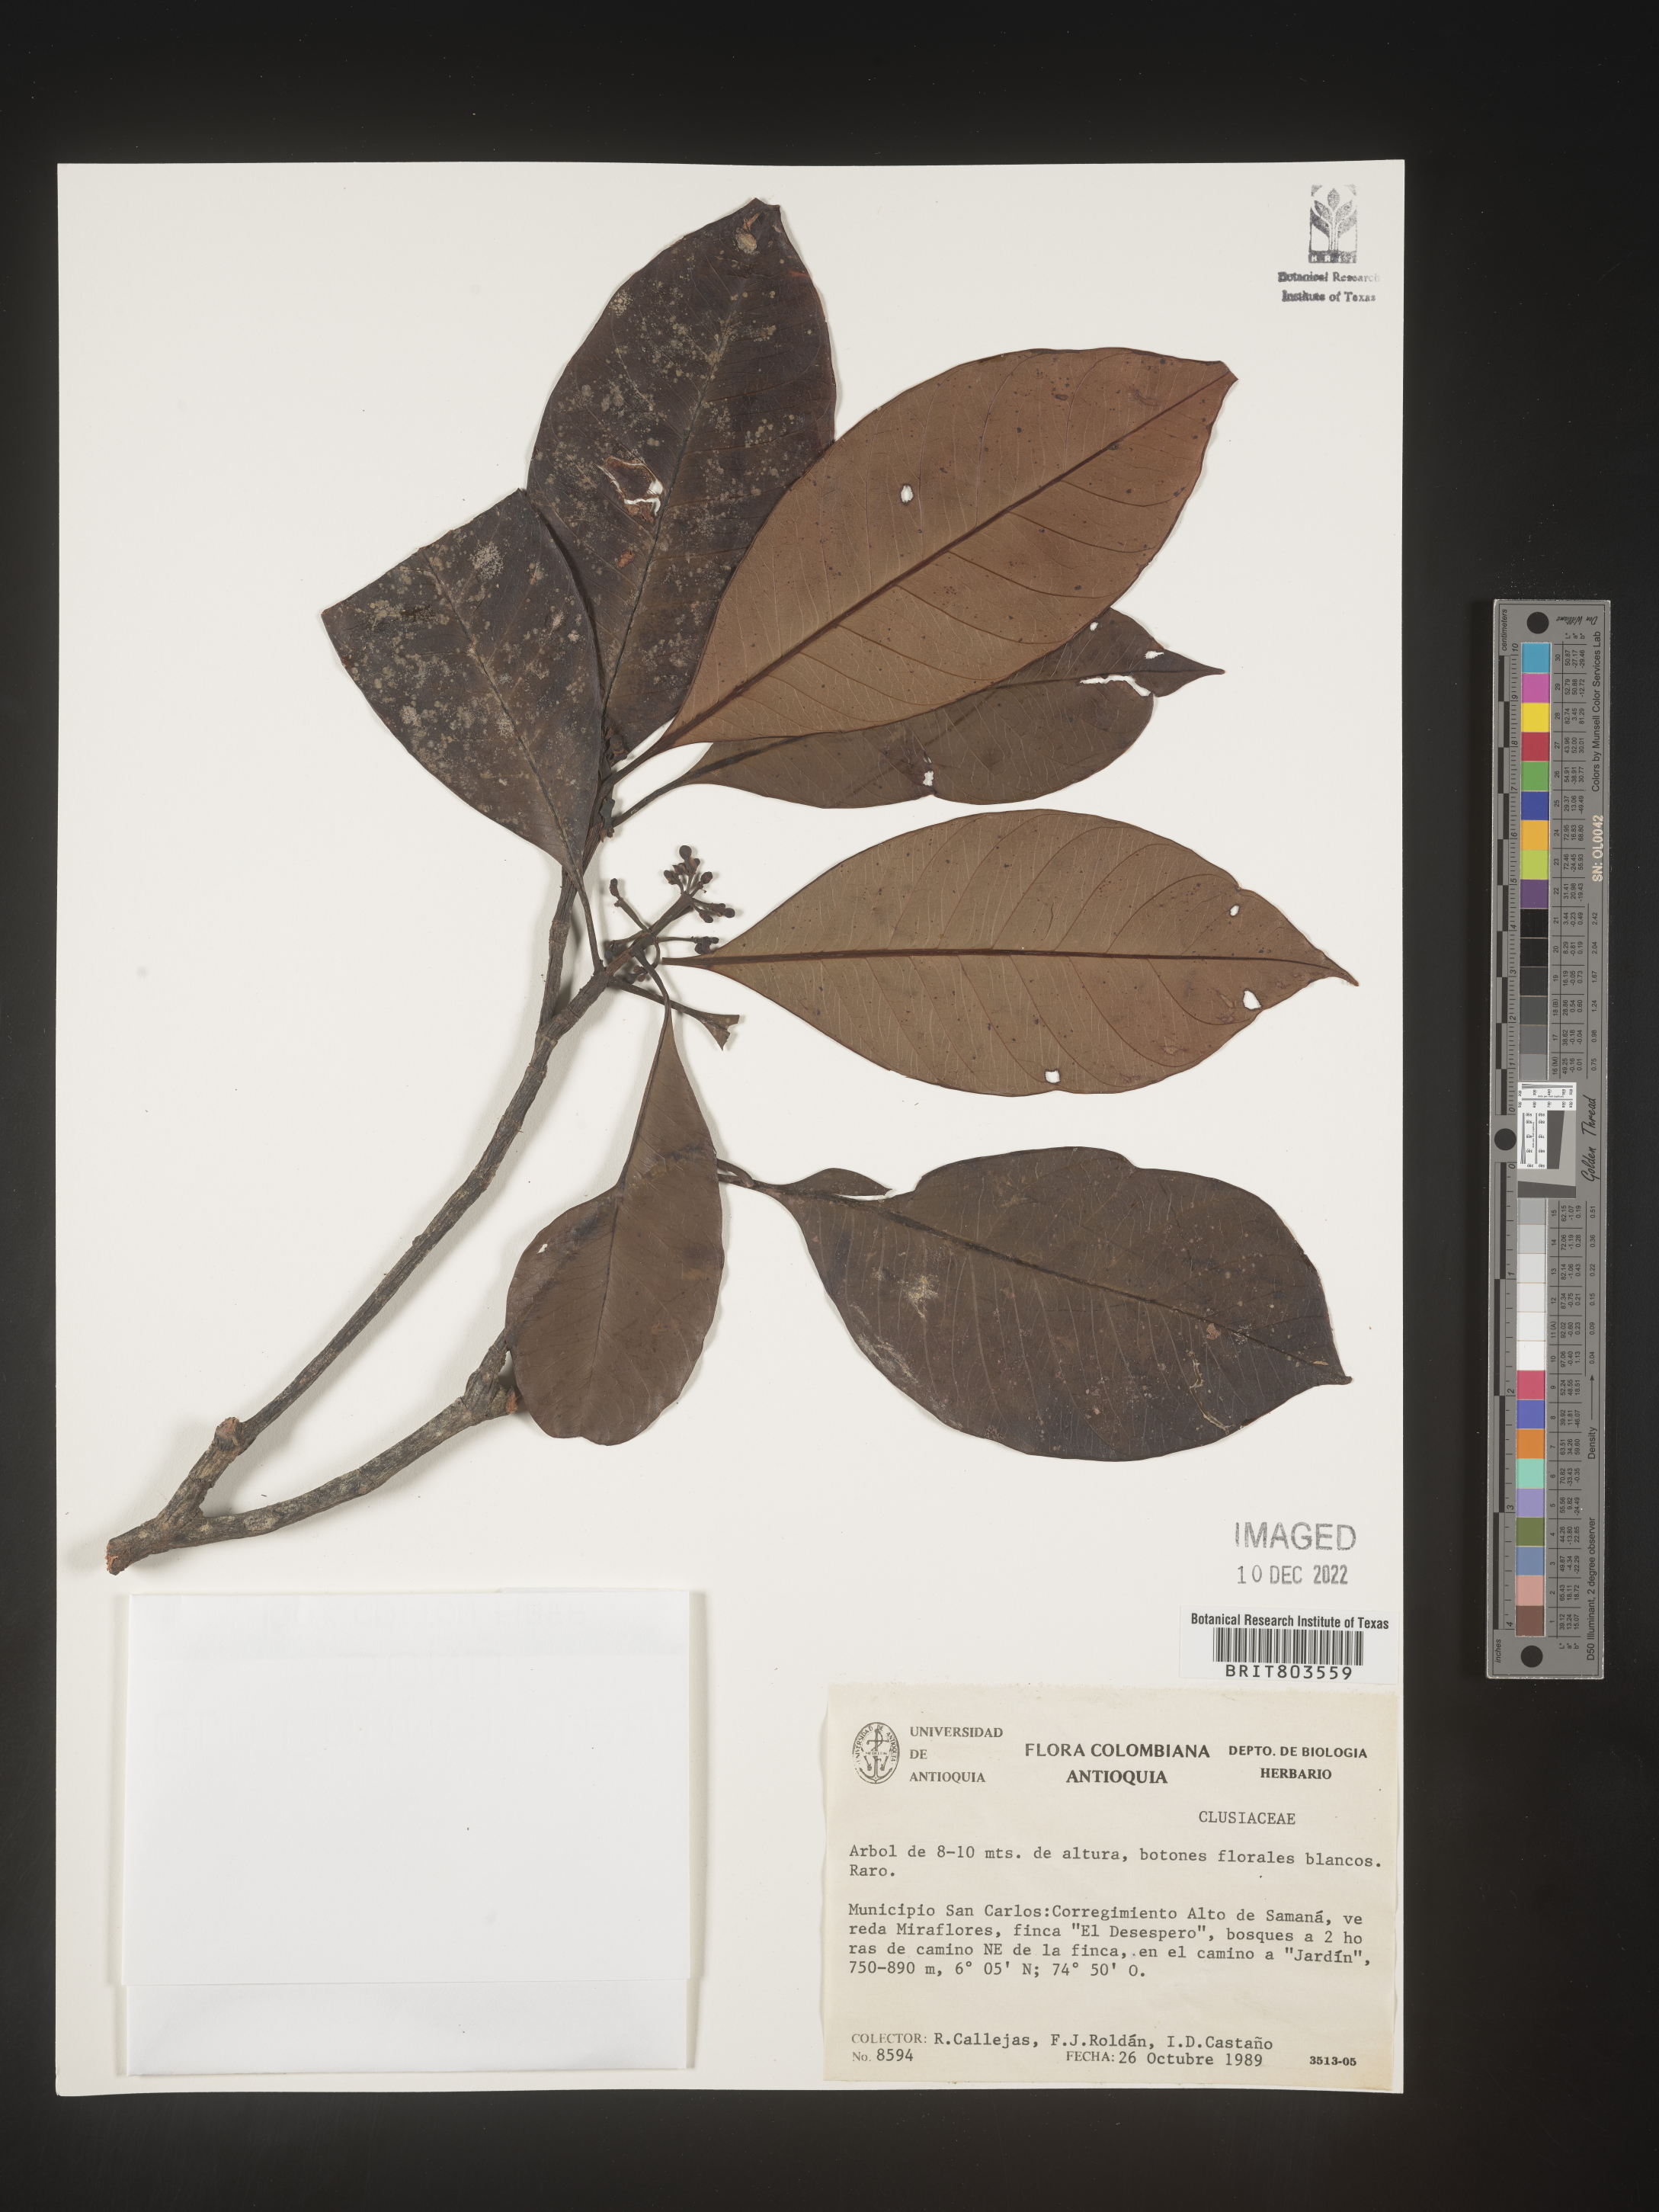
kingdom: Plantae
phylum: Tracheophyta
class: Magnoliopsida
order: Malpighiales
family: Clusiaceae
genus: Tovomita
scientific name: Tovomita
